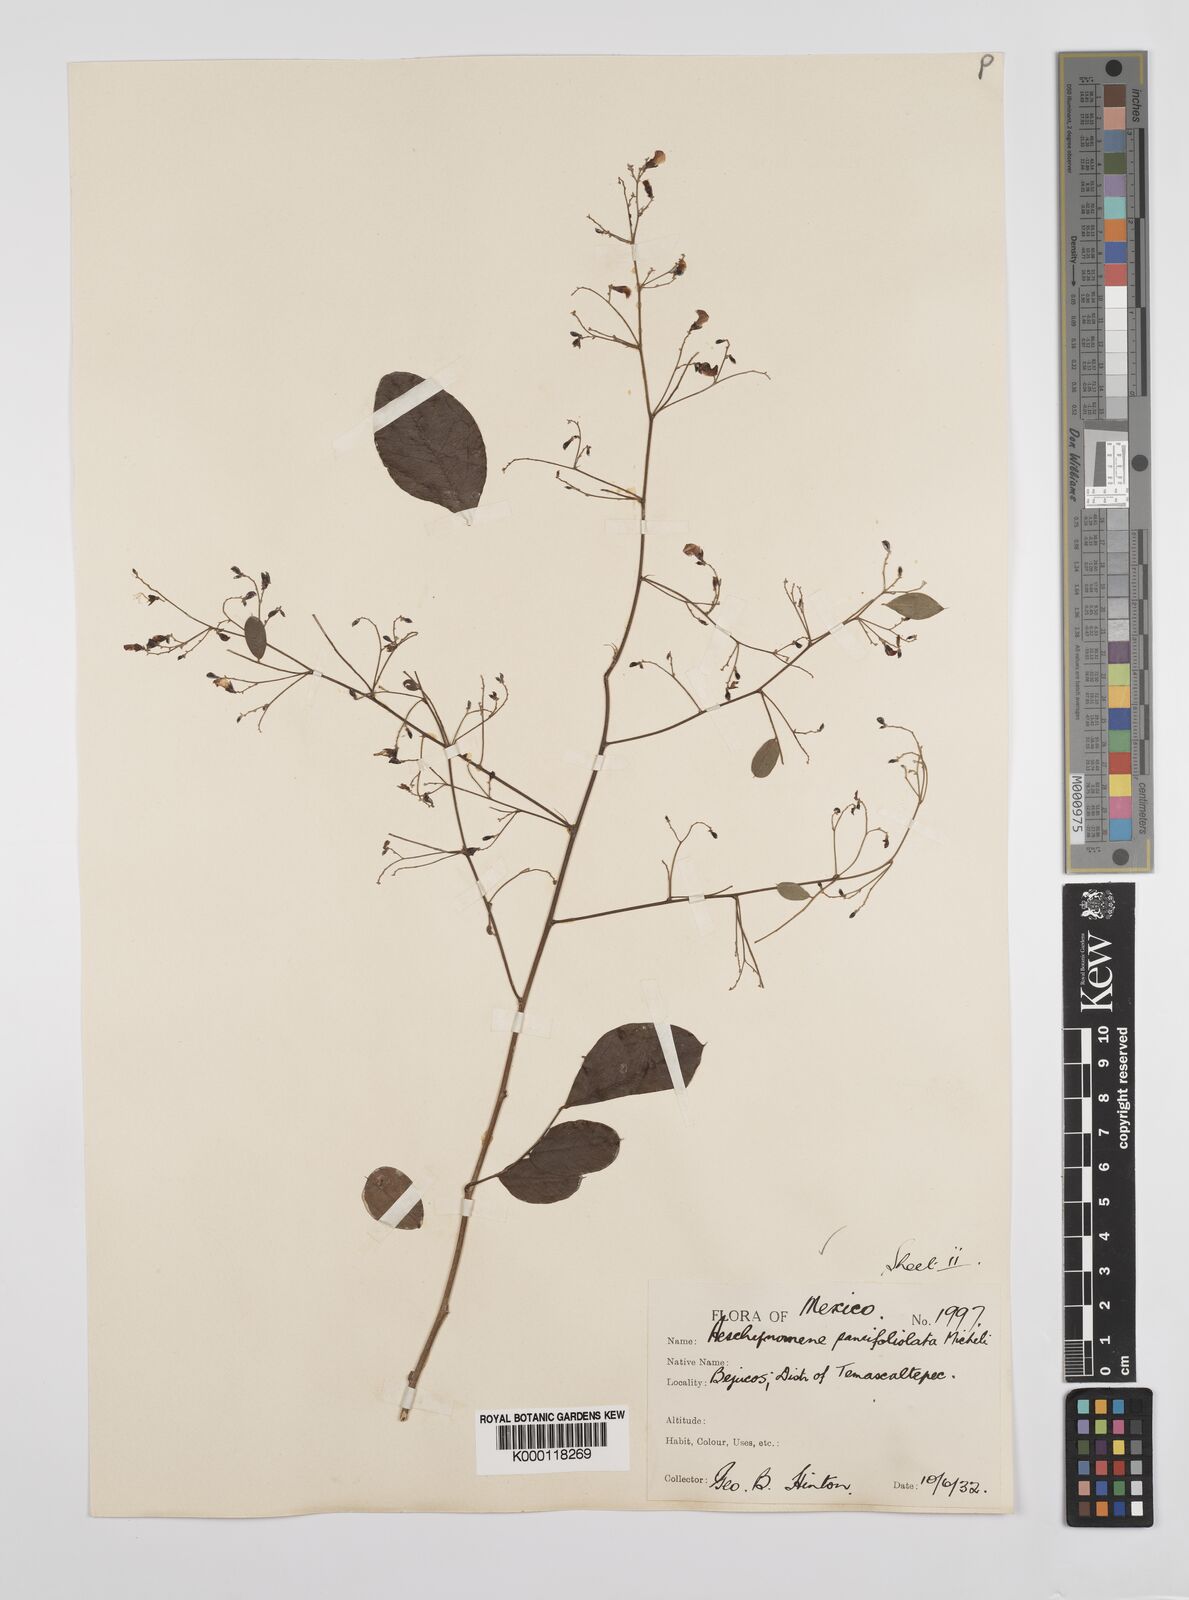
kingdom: Plantae
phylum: Tracheophyta
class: Magnoliopsida
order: Fabales
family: Fabaceae
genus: Ctenodon
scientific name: Ctenodon paucifoliolatus
